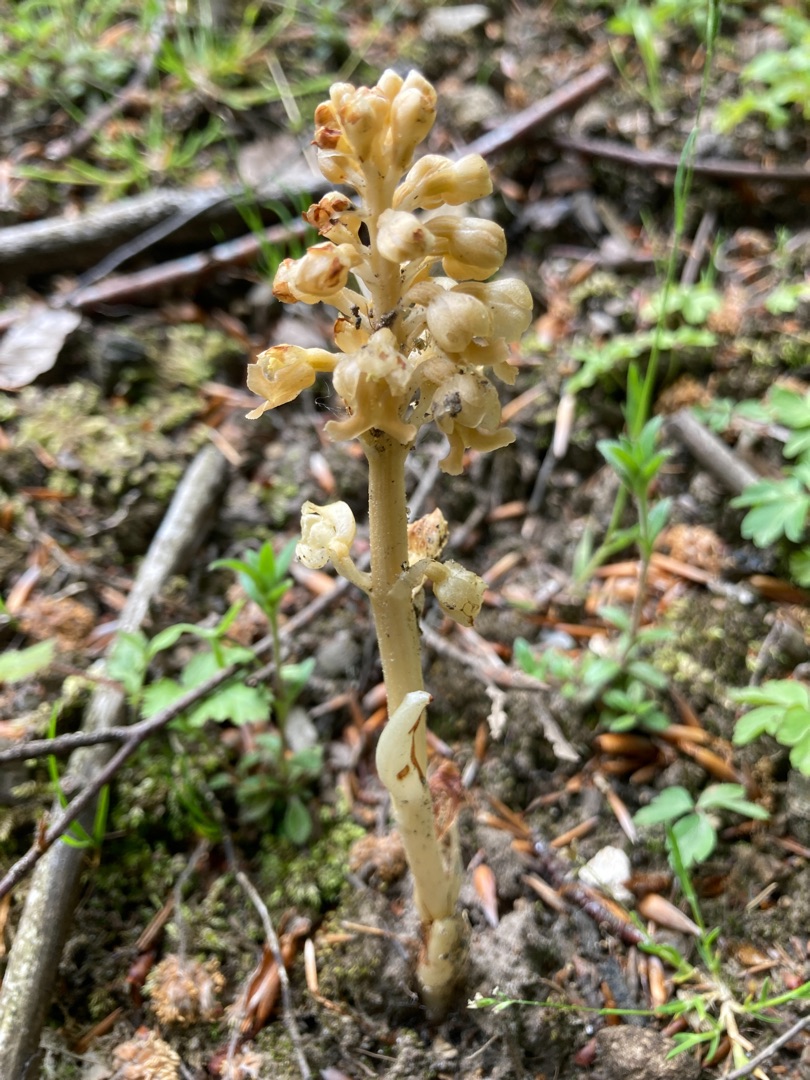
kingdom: Plantae
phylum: Tracheophyta
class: Liliopsida
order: Asparagales
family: Orchidaceae
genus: Neottia
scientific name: Neottia nidus-avis
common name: Rederod
